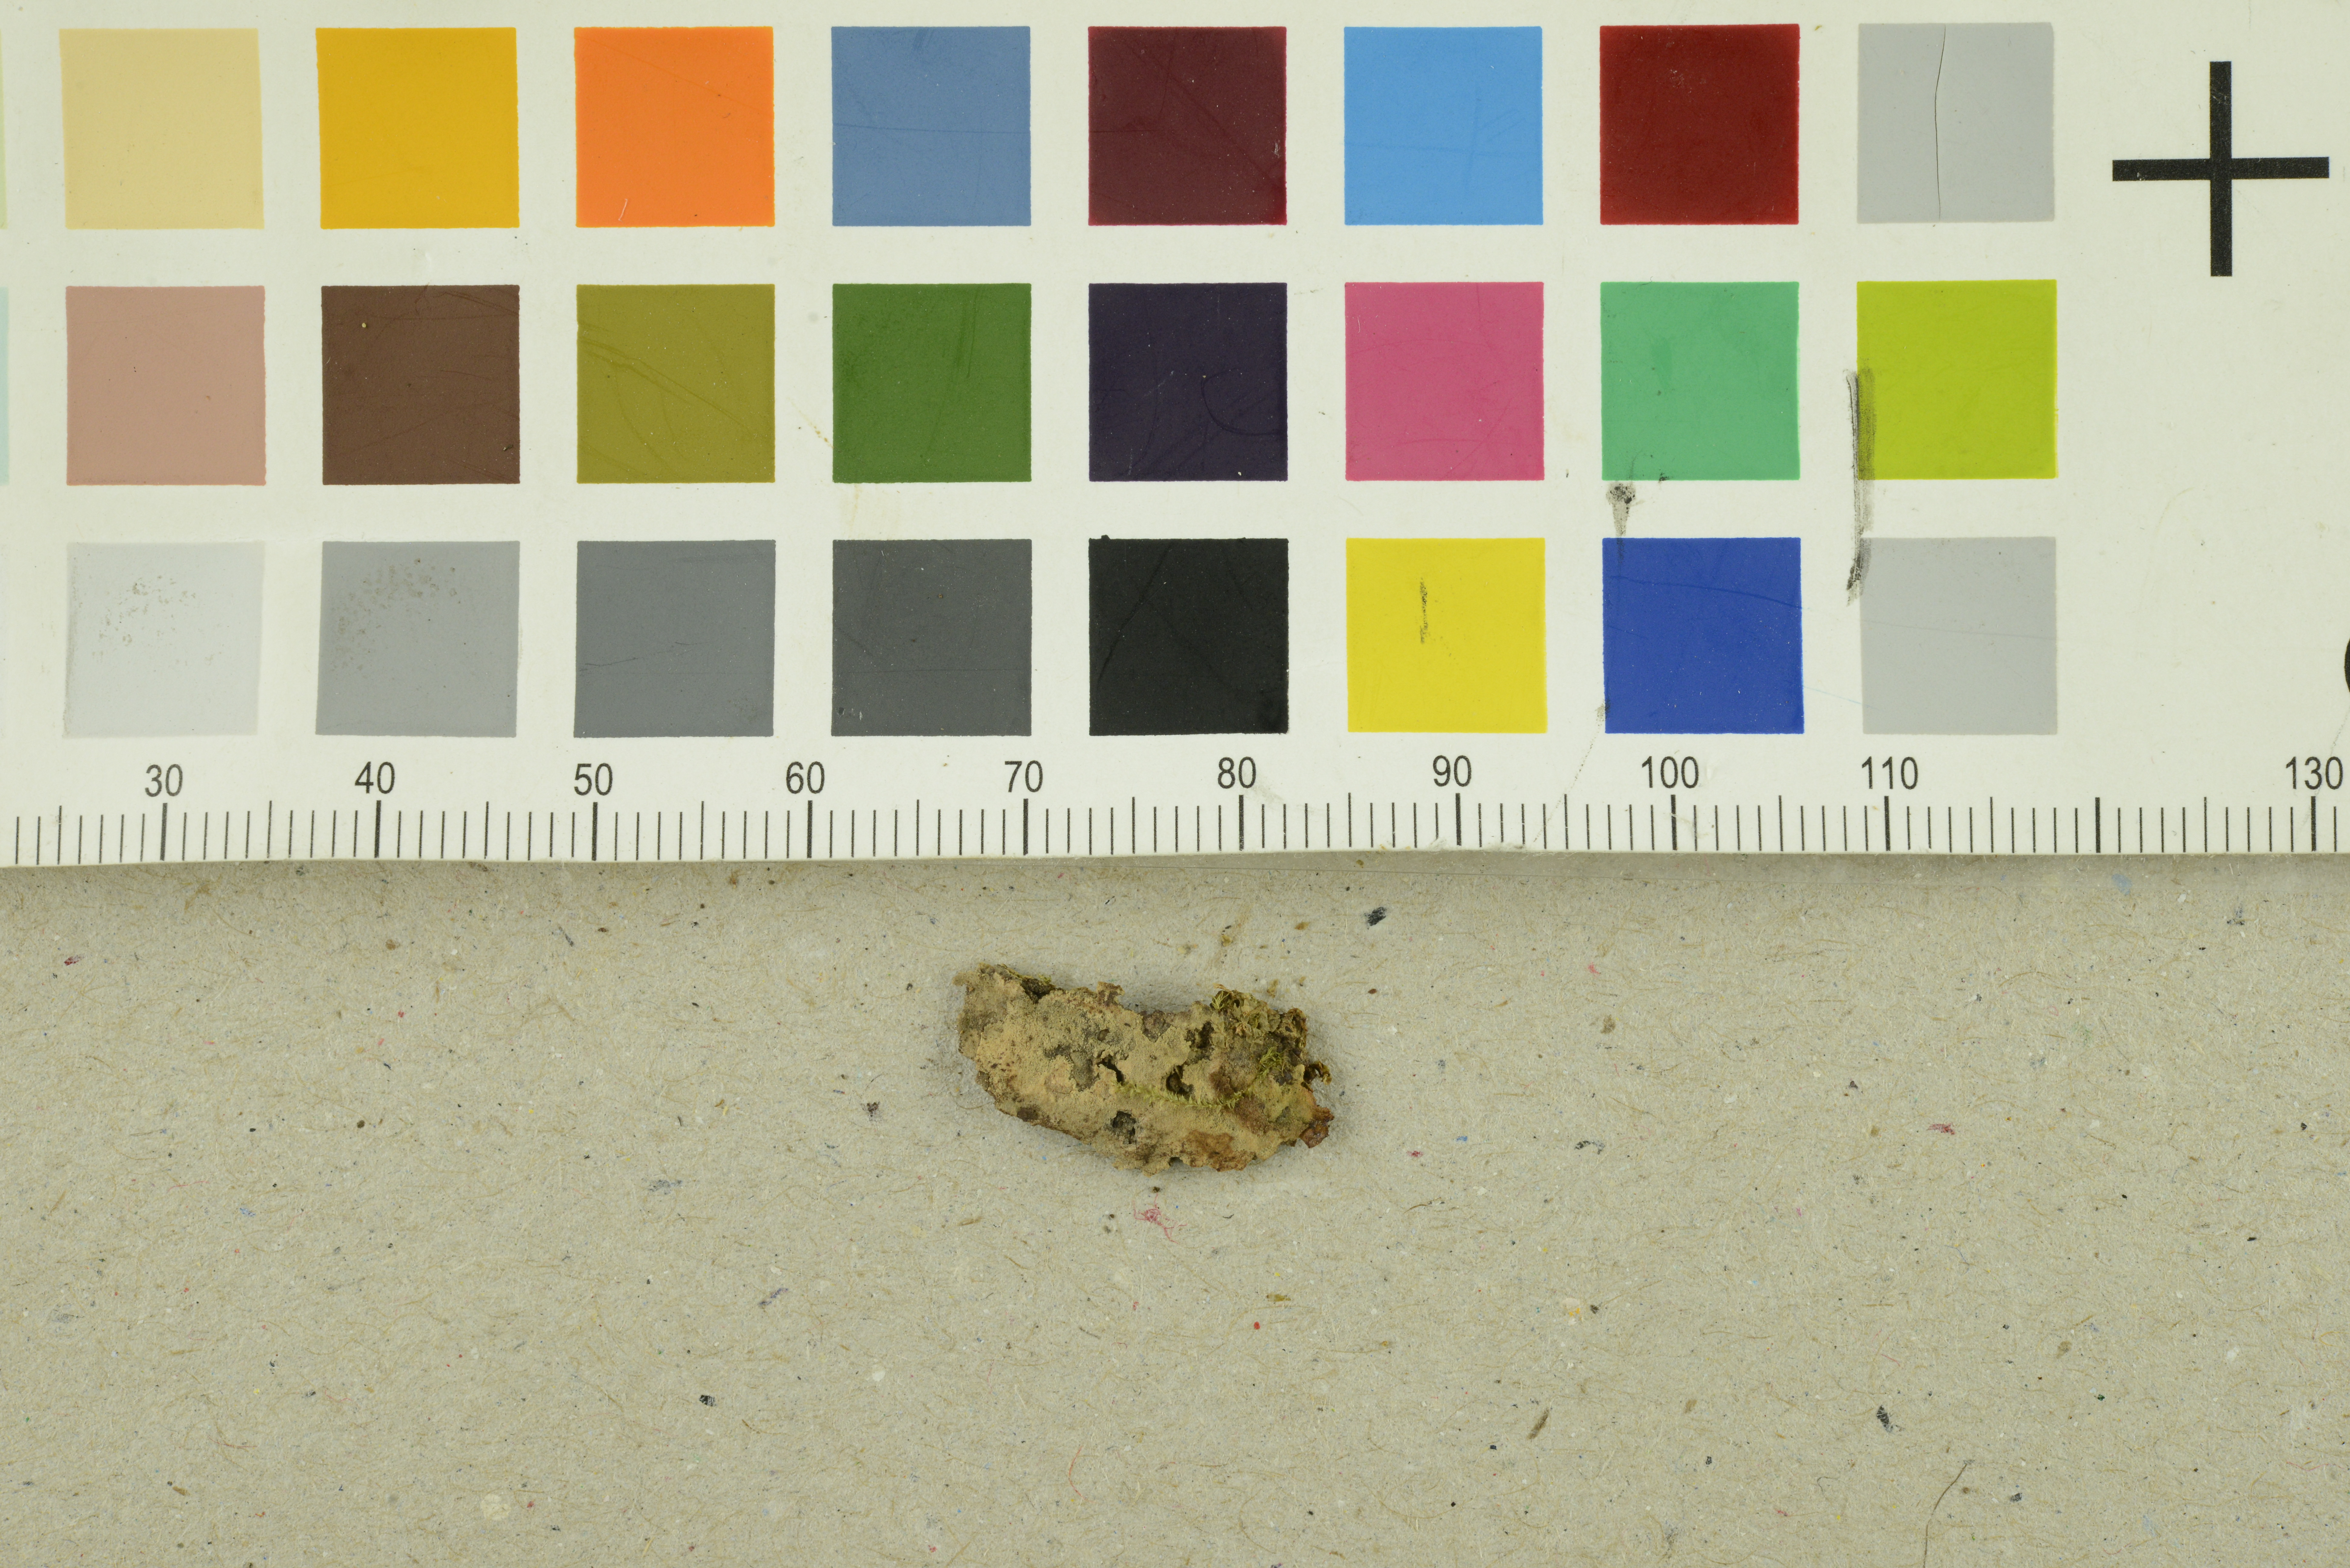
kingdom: Fungi
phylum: Basidiomycota
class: Agaricomycetes
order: Polyporales
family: Meruliaceae
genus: Physisporinus
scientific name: Physisporinus vitreus
